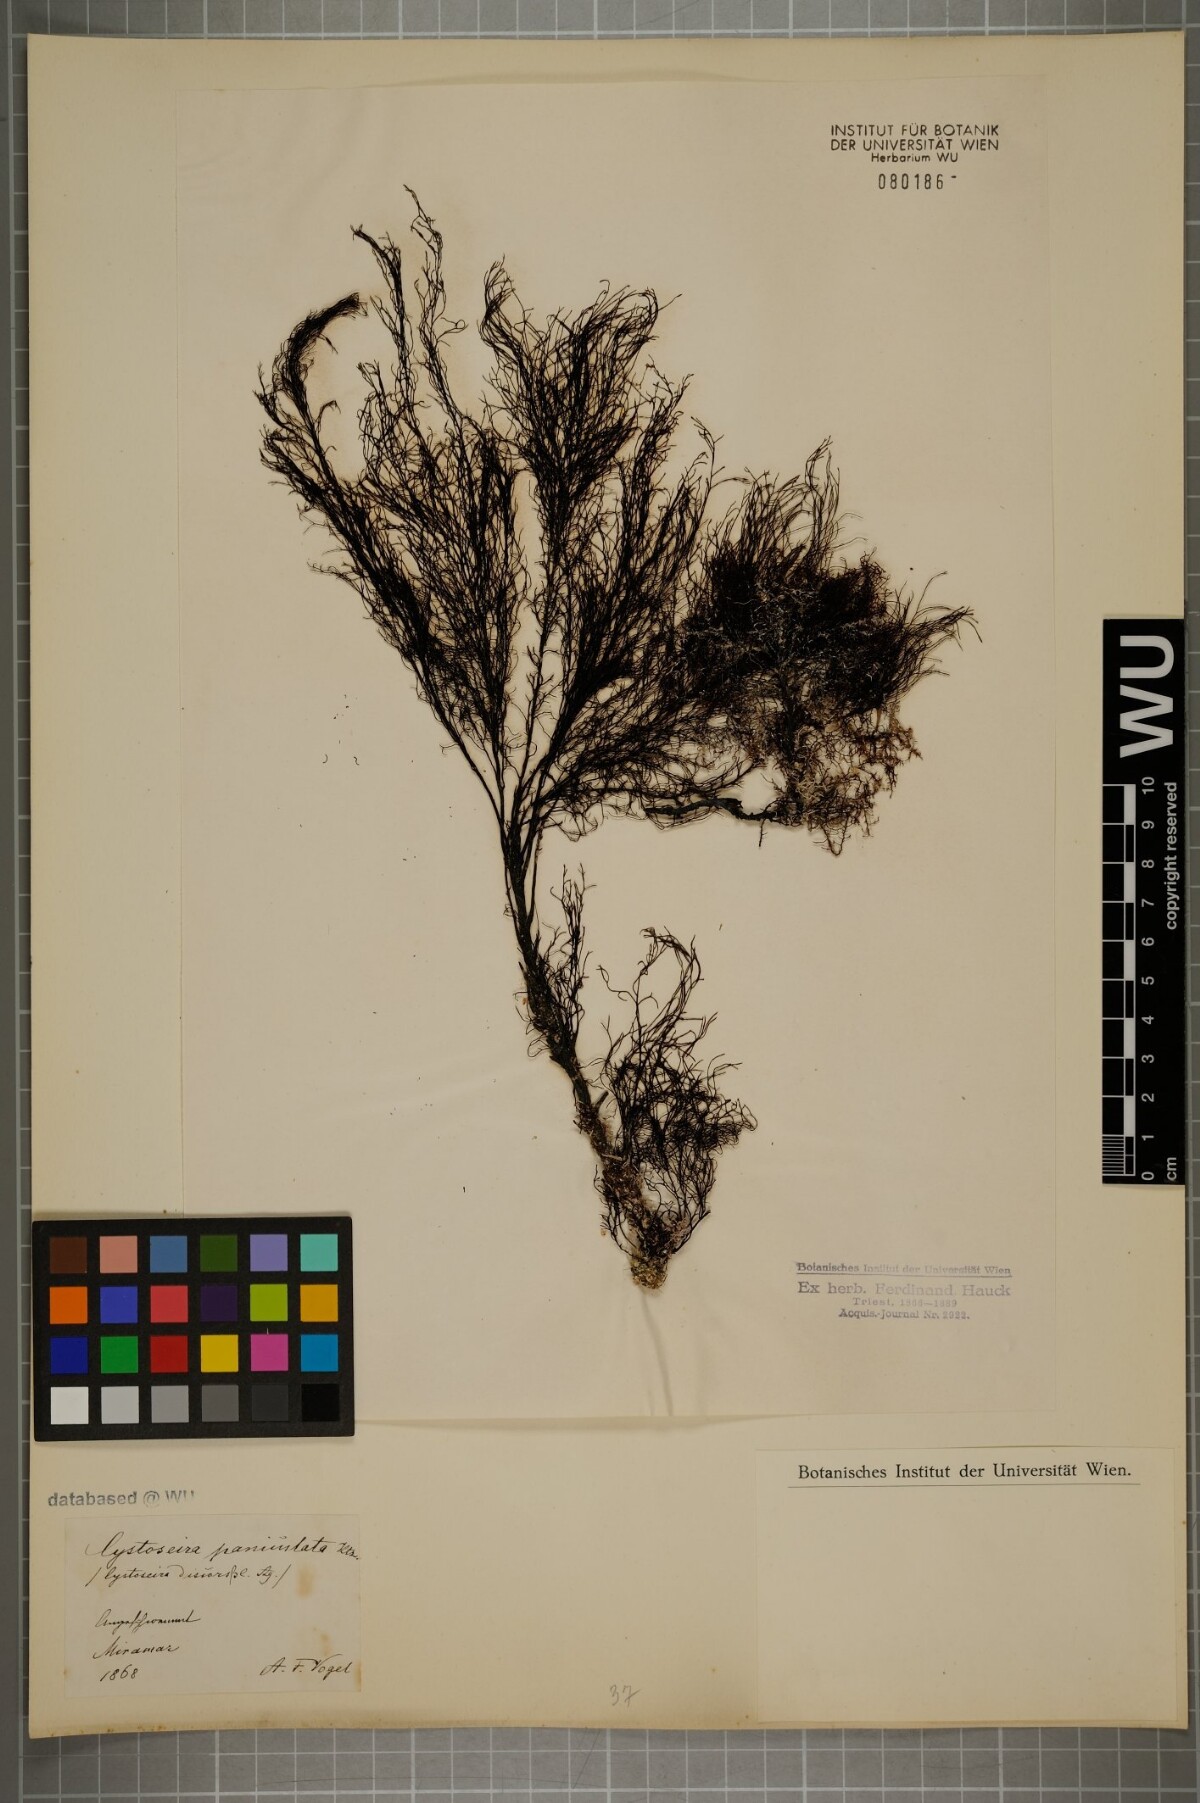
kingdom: Chromista
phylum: Ochrophyta
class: Phaeophyceae
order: Fucales
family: Sargassaceae
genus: Cystoseira
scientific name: Cystoseira
